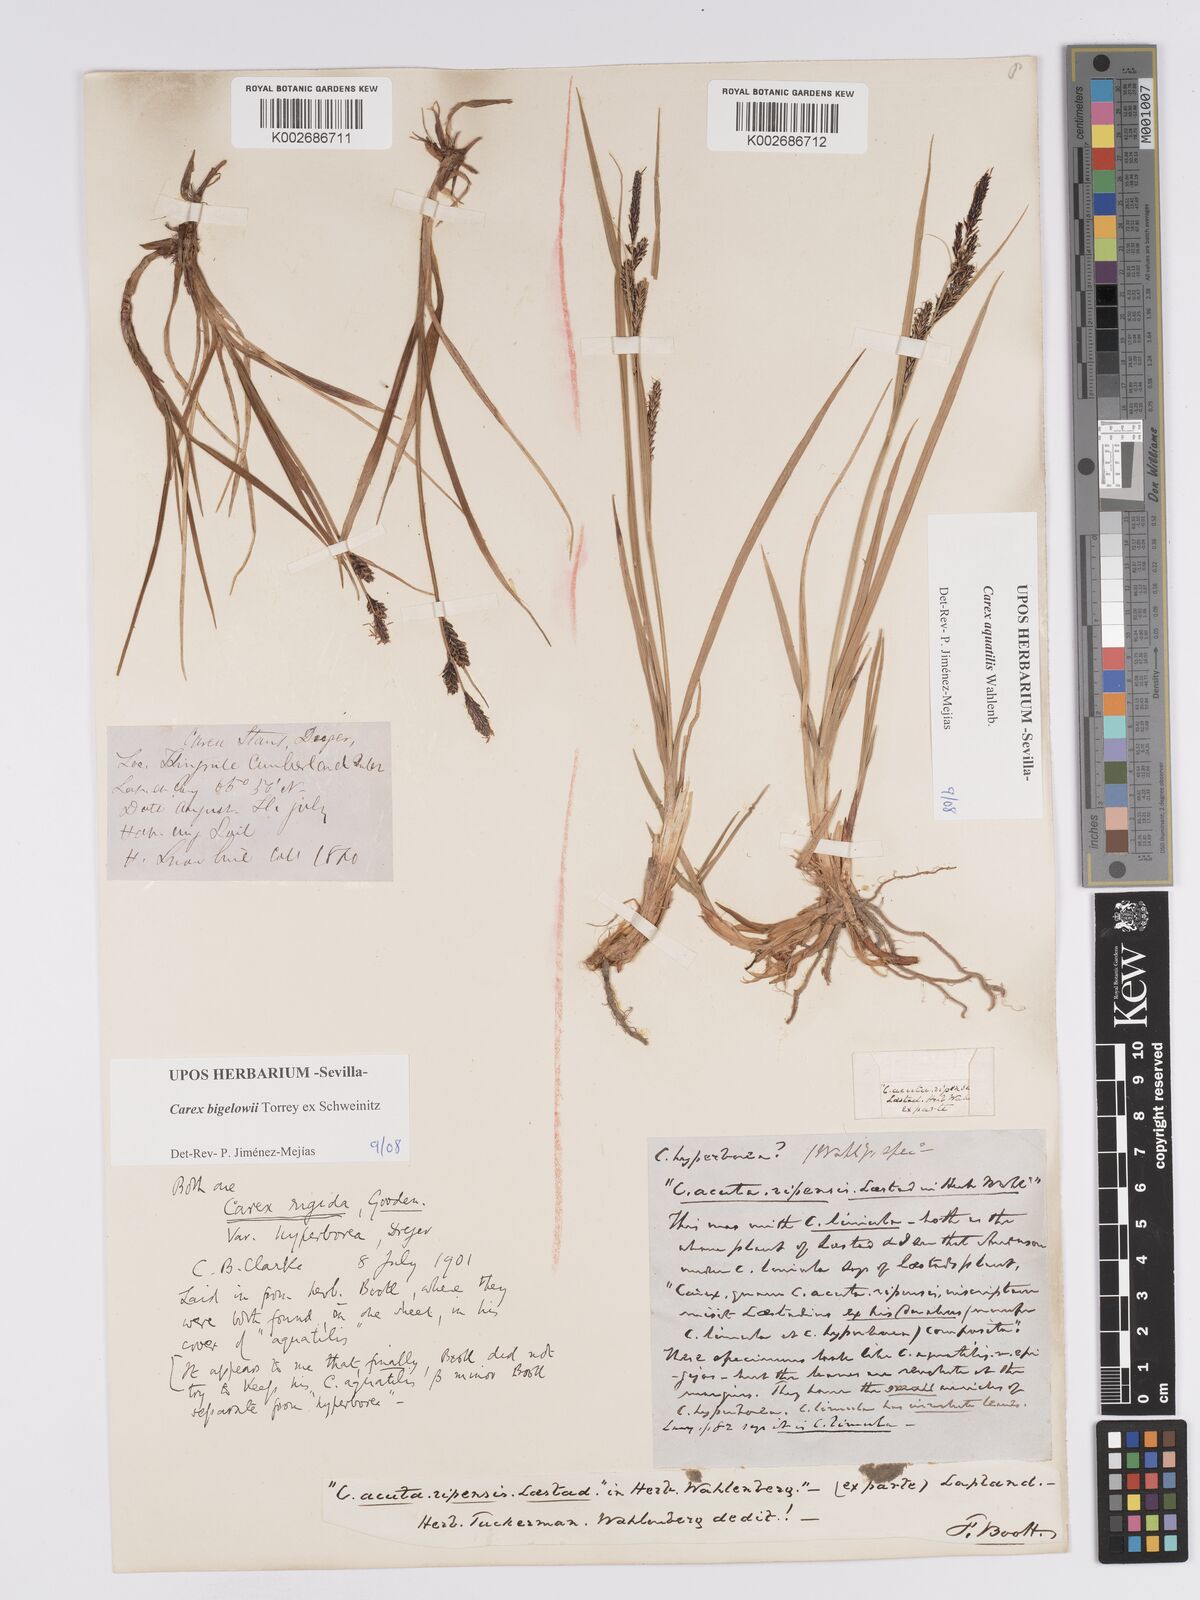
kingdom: Plantae
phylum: Tracheophyta
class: Liliopsida
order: Poales
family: Cyperaceae
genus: Carex
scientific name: Carex aquatilis
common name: Water sedge
